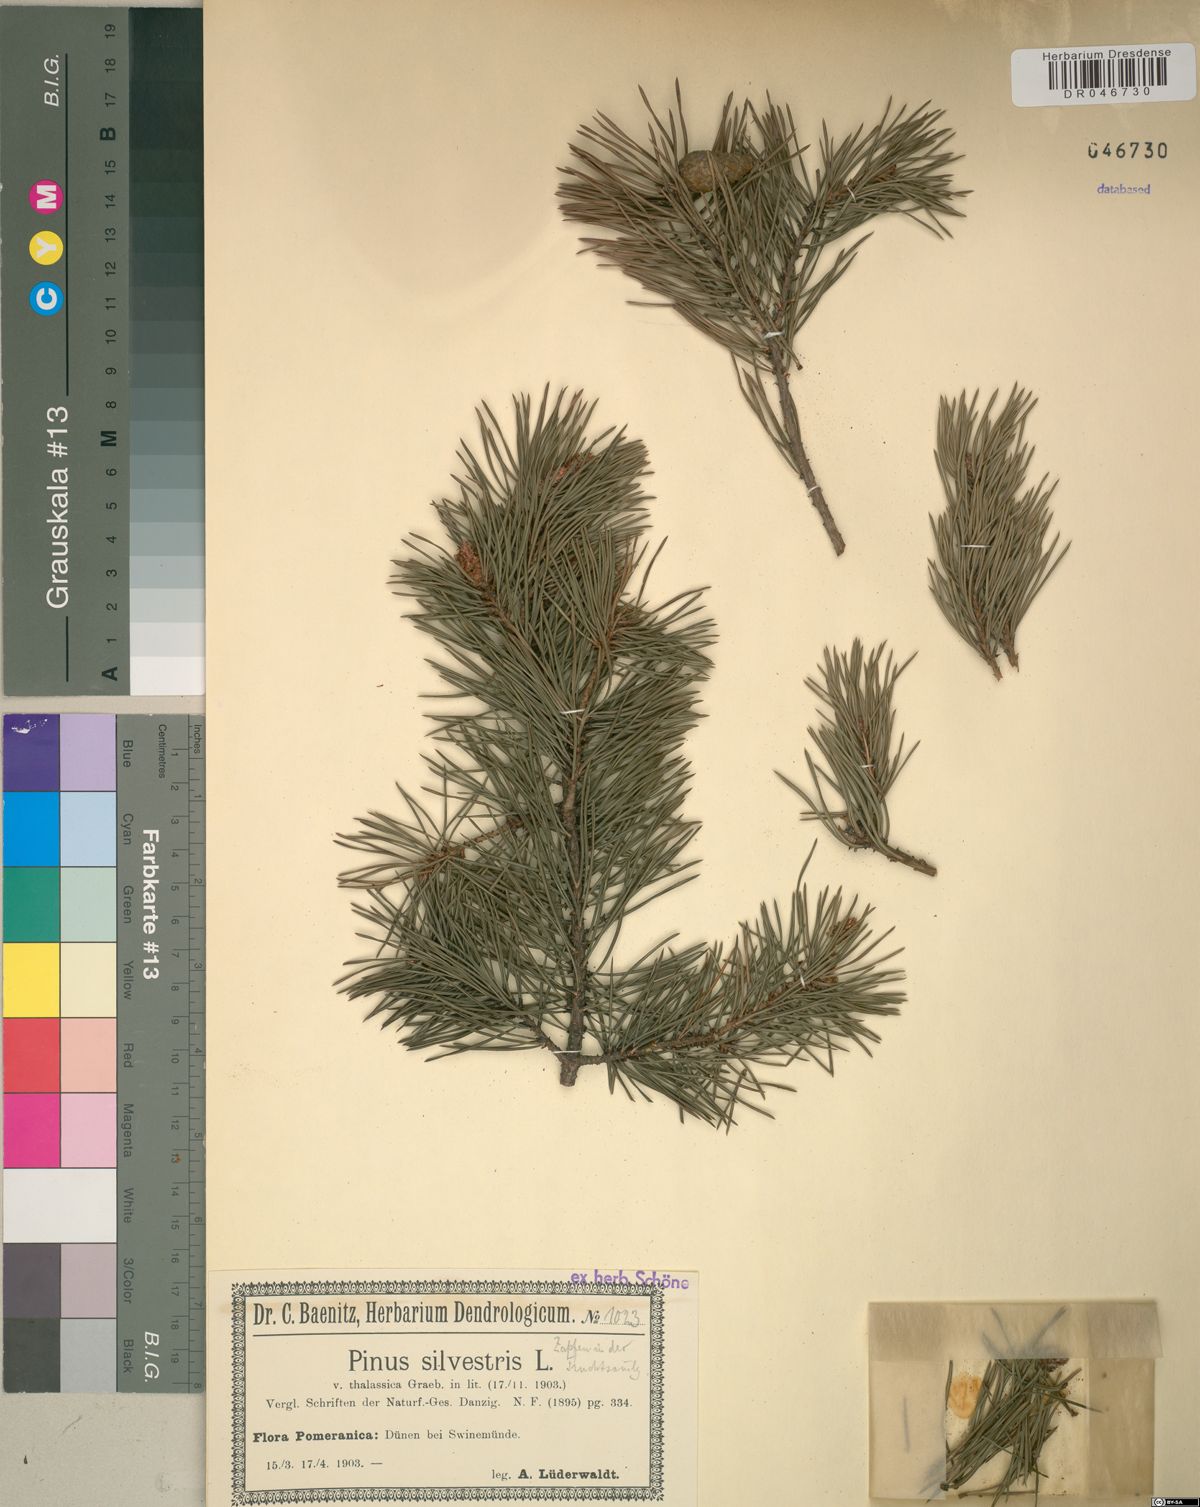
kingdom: Plantae
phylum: Tracheophyta
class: Pinopsida
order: Pinales
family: Pinaceae
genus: Pinus
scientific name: Pinus sylvestris
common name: Scots pine
